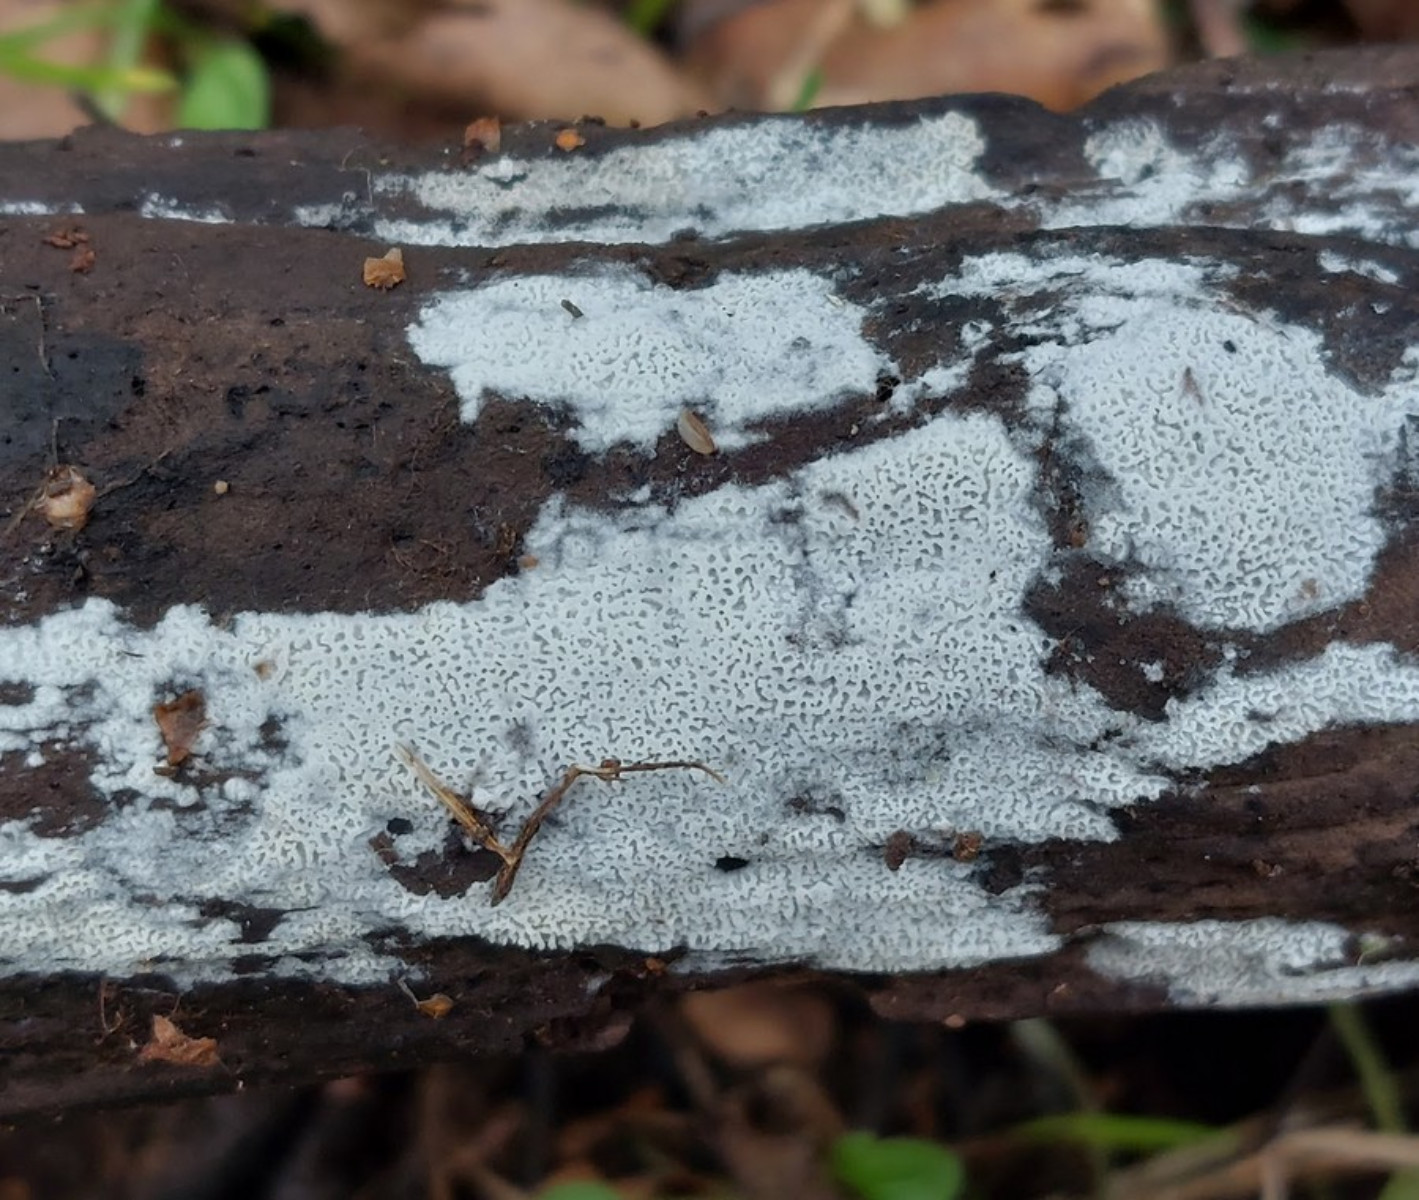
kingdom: Fungi
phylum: Basidiomycota
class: Agaricomycetes
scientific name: Agaricomycetes
